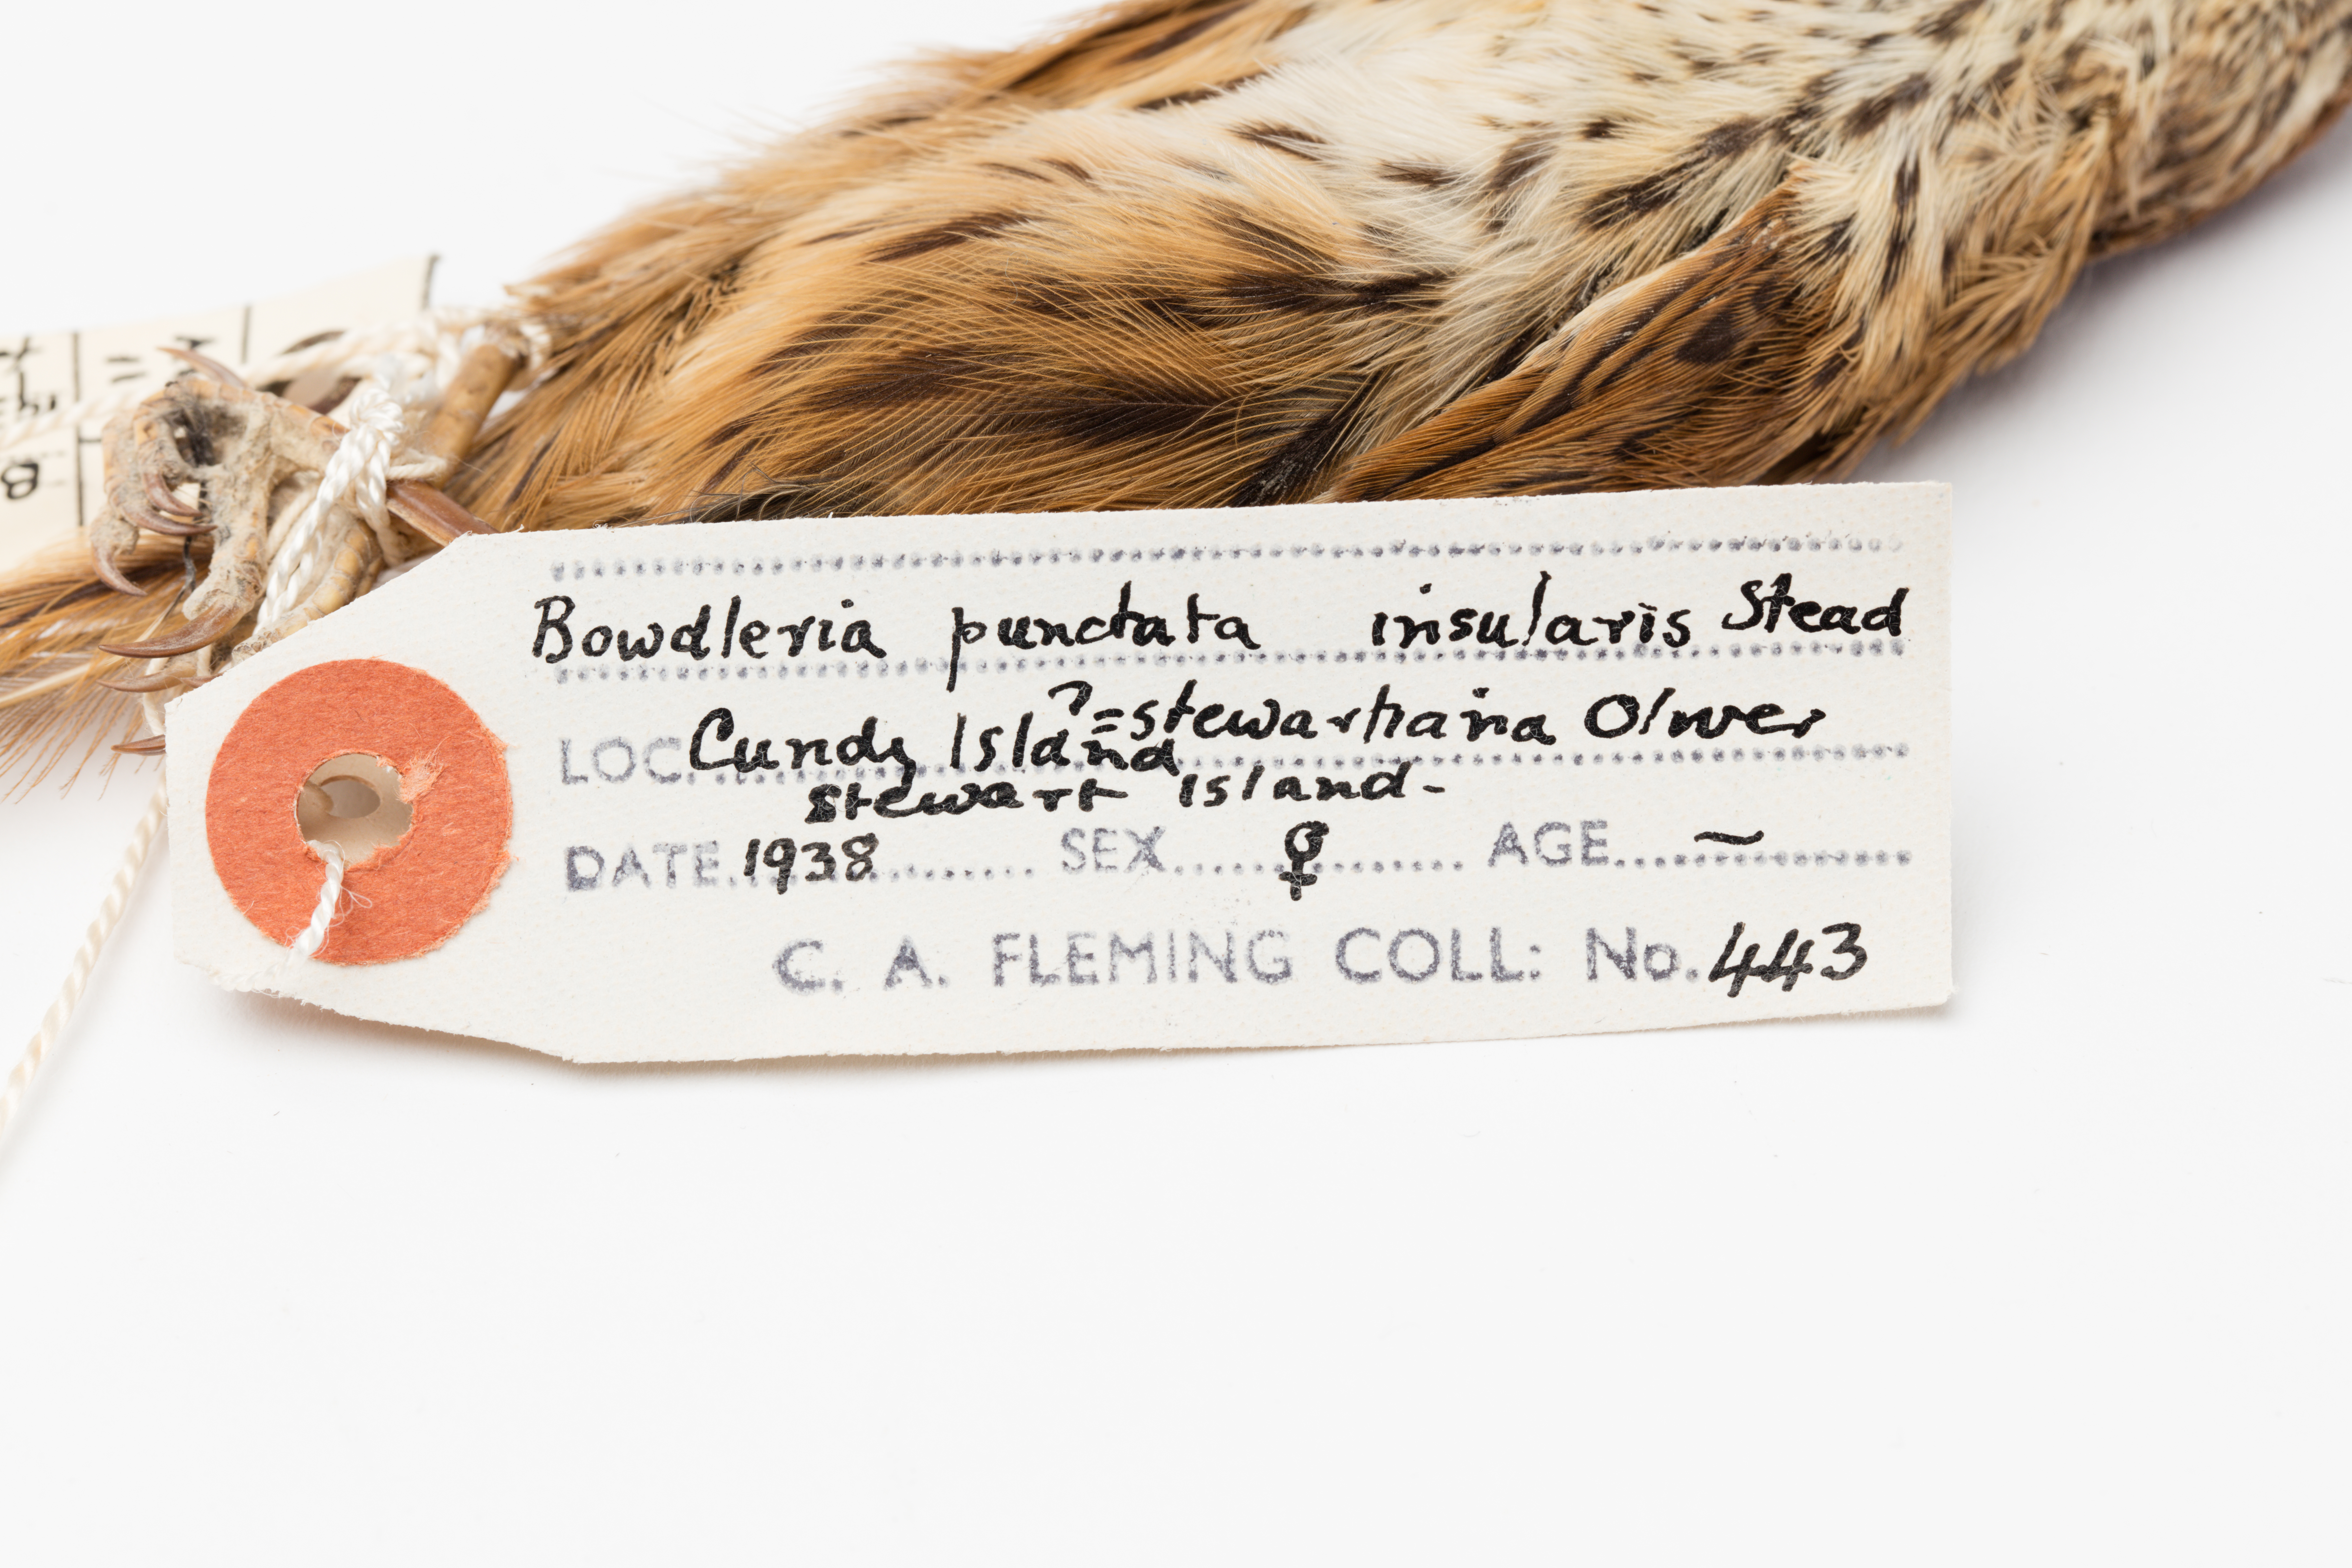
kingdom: Animalia
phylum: Chordata
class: Aves
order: Passeriformes
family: Locustellidae
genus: Megalurus
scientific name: Megalurus punctatus
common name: New zealand fernbird
